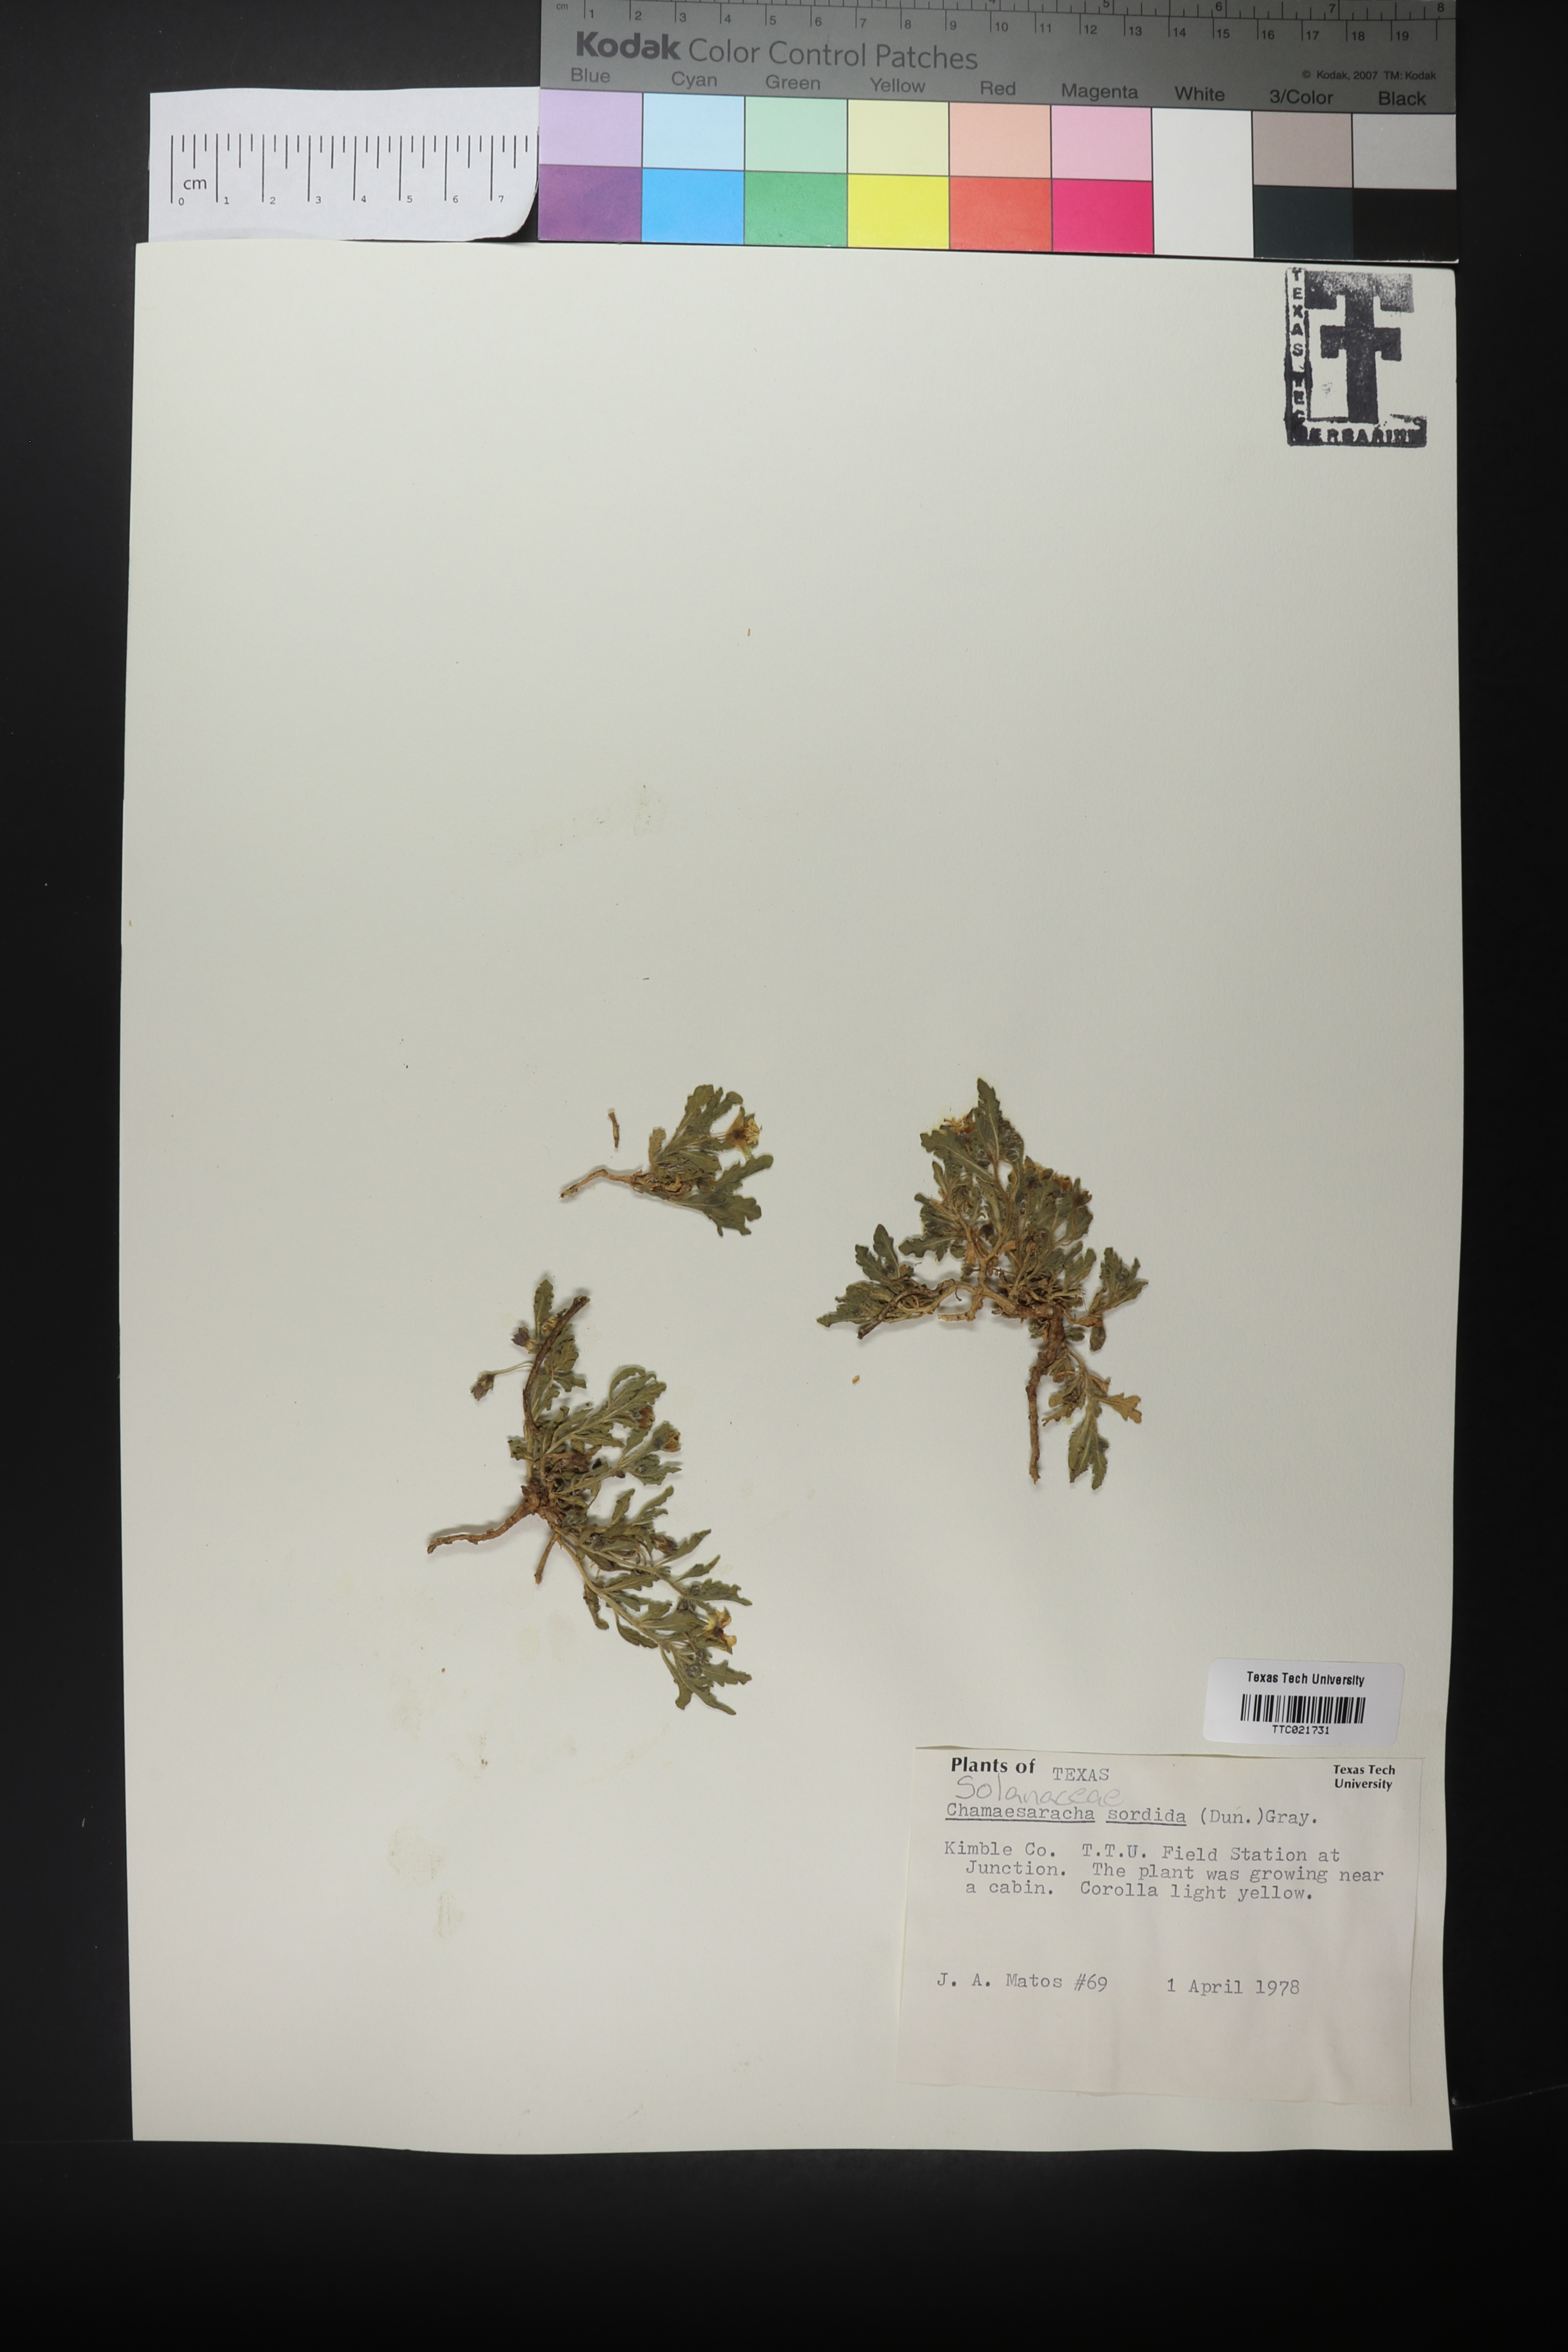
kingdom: Plantae
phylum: Tracheophyta
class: Magnoliopsida
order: Solanales
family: Solanaceae
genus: Chamaesaracha
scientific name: Chamaesaracha sordida
